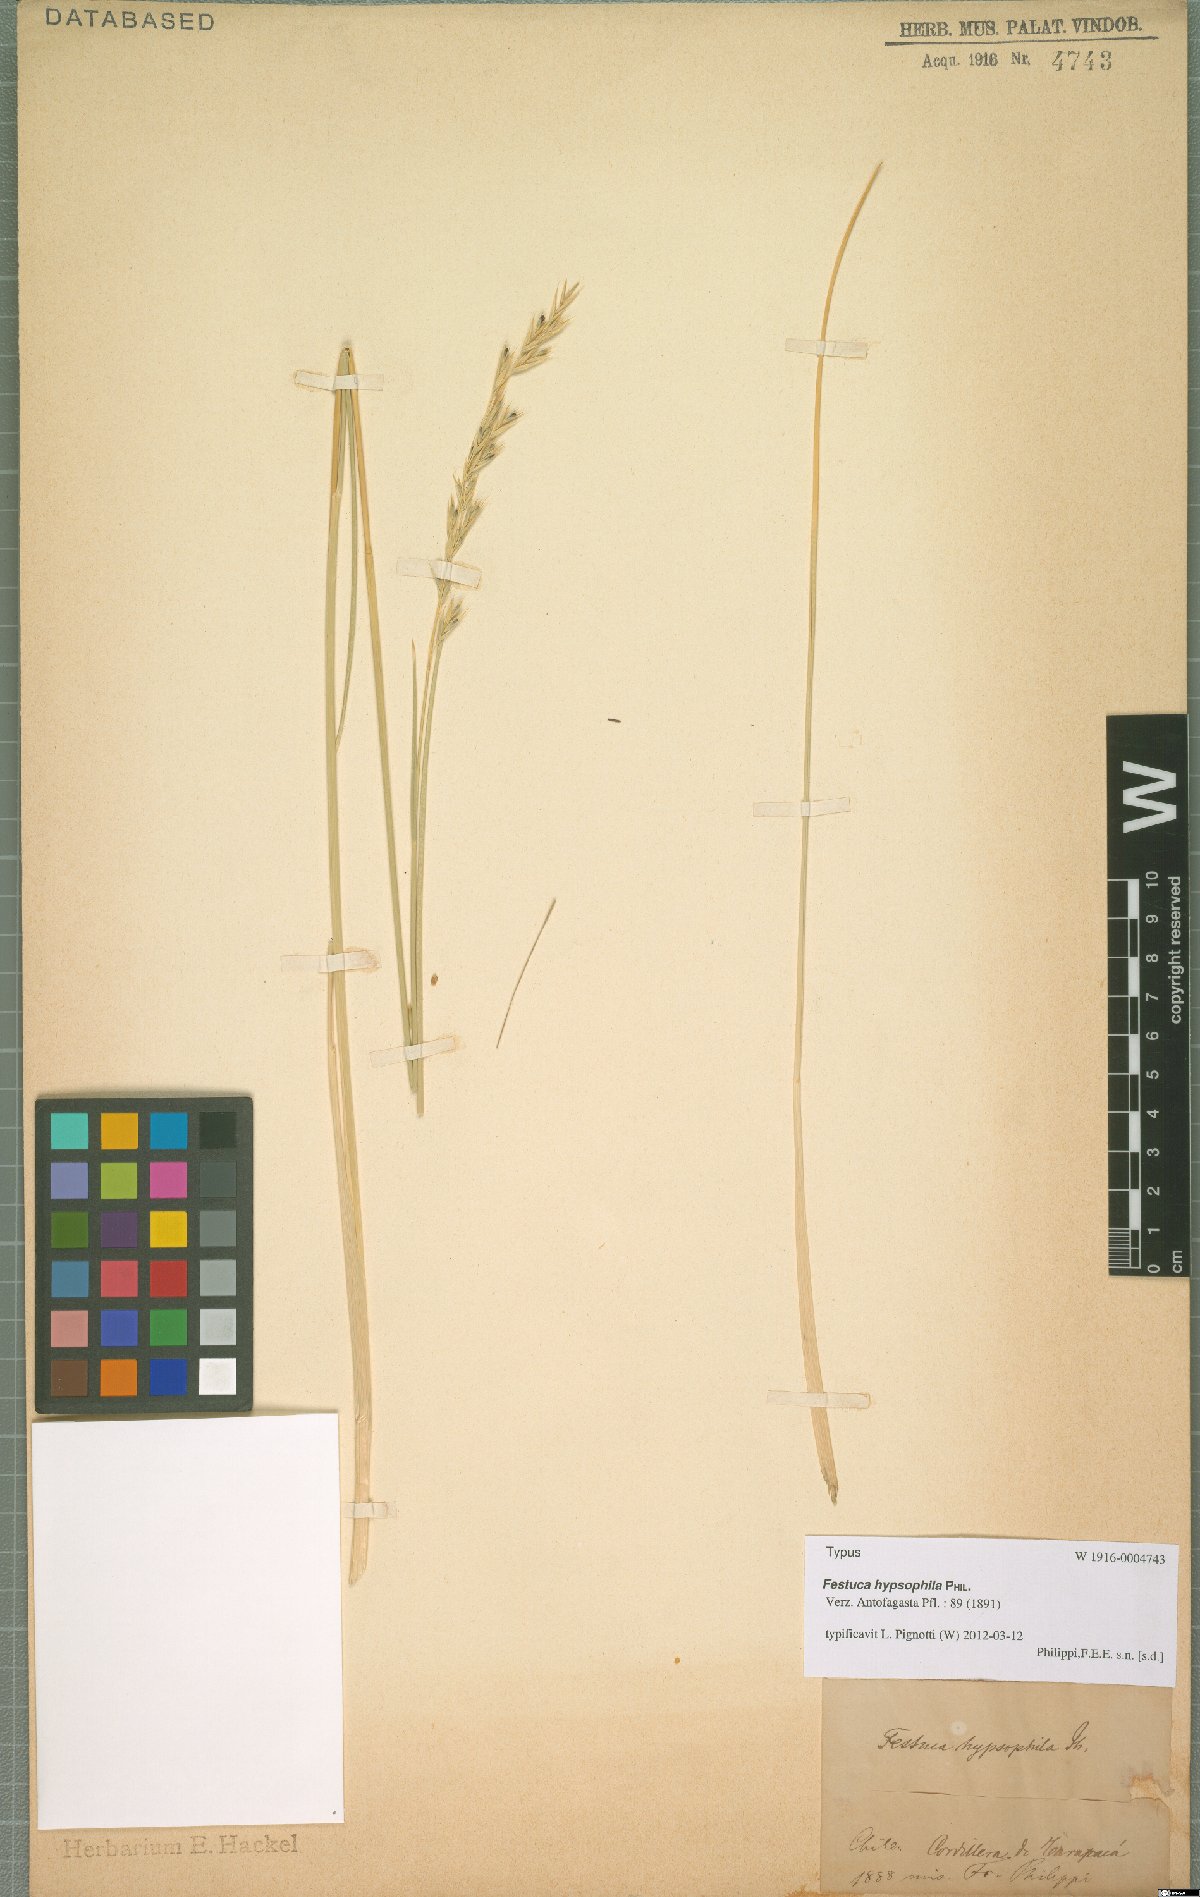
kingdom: Plantae
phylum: Tracheophyta
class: Liliopsida
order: Poales
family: Poaceae
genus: Festuca
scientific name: Festuca hypsophila
